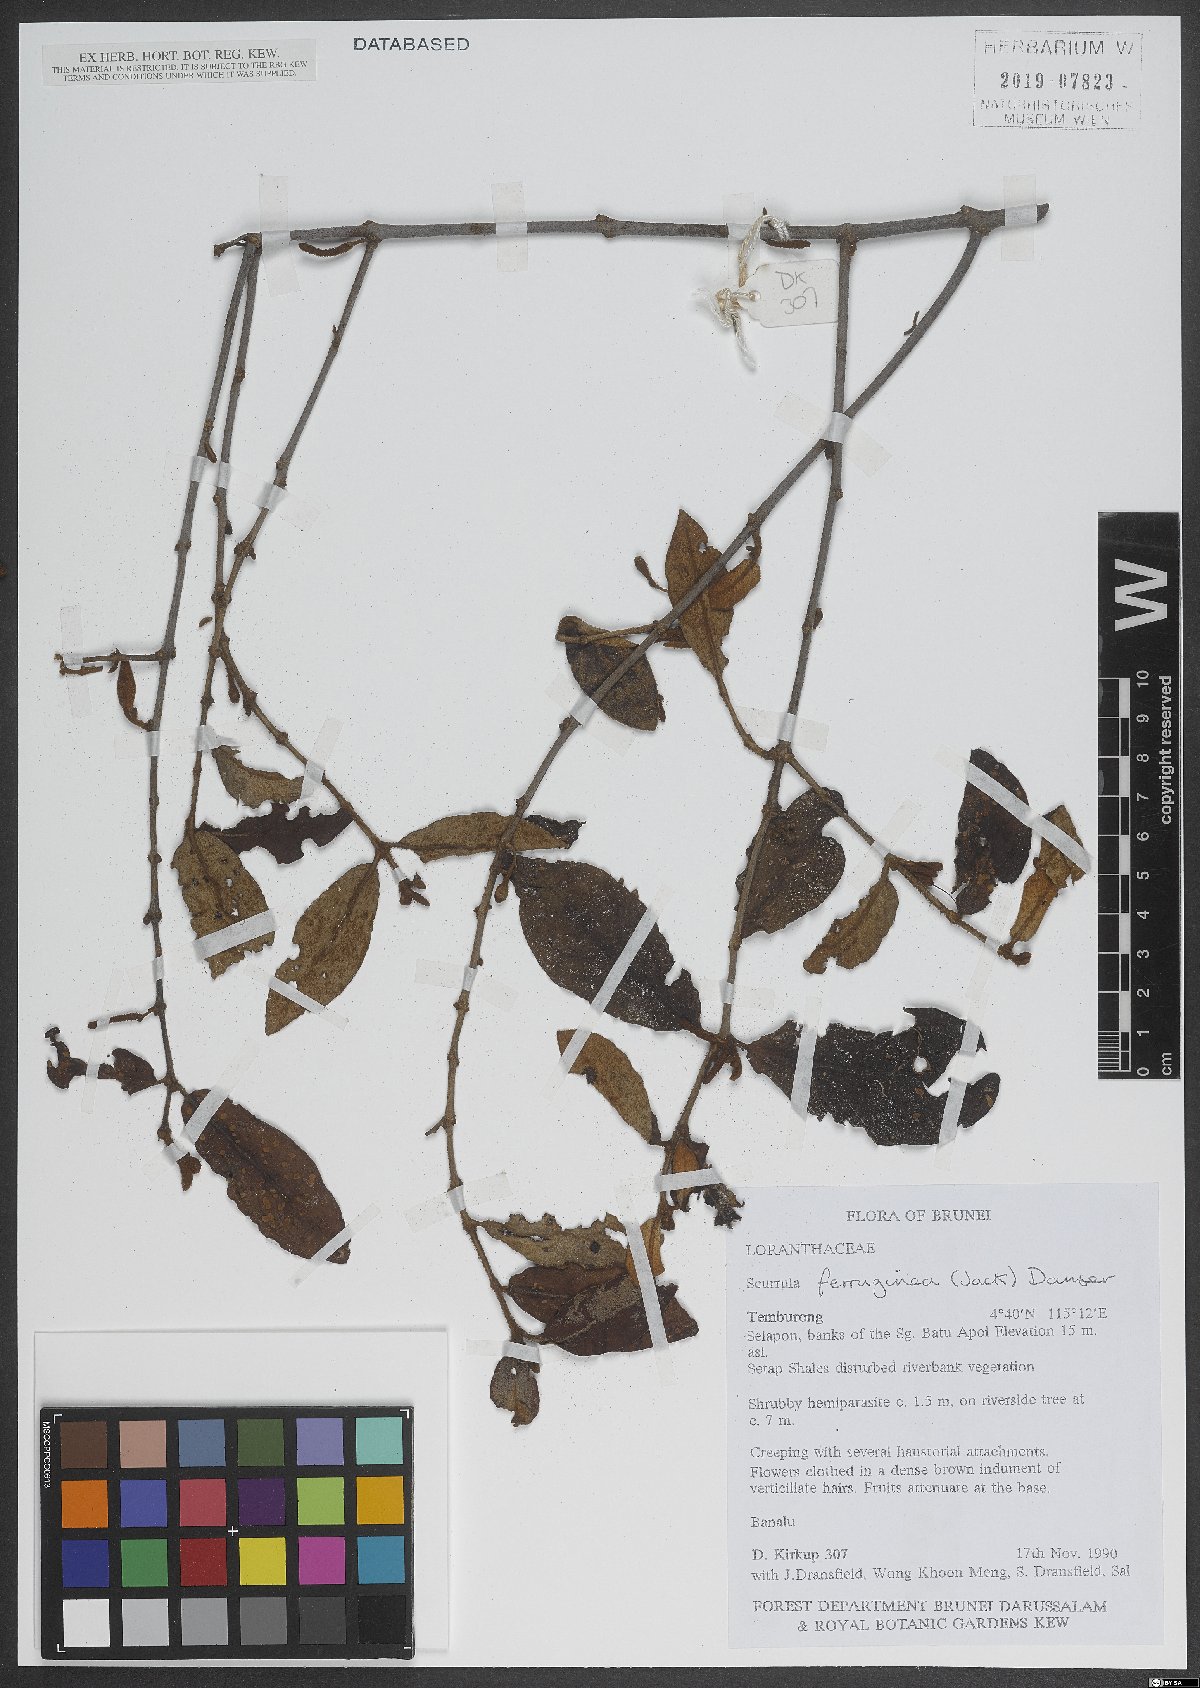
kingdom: Plantae
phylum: Tracheophyta
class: Magnoliopsida
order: Santalales
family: Loranthaceae
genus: Scurrula
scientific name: Scurrula ferruginea
